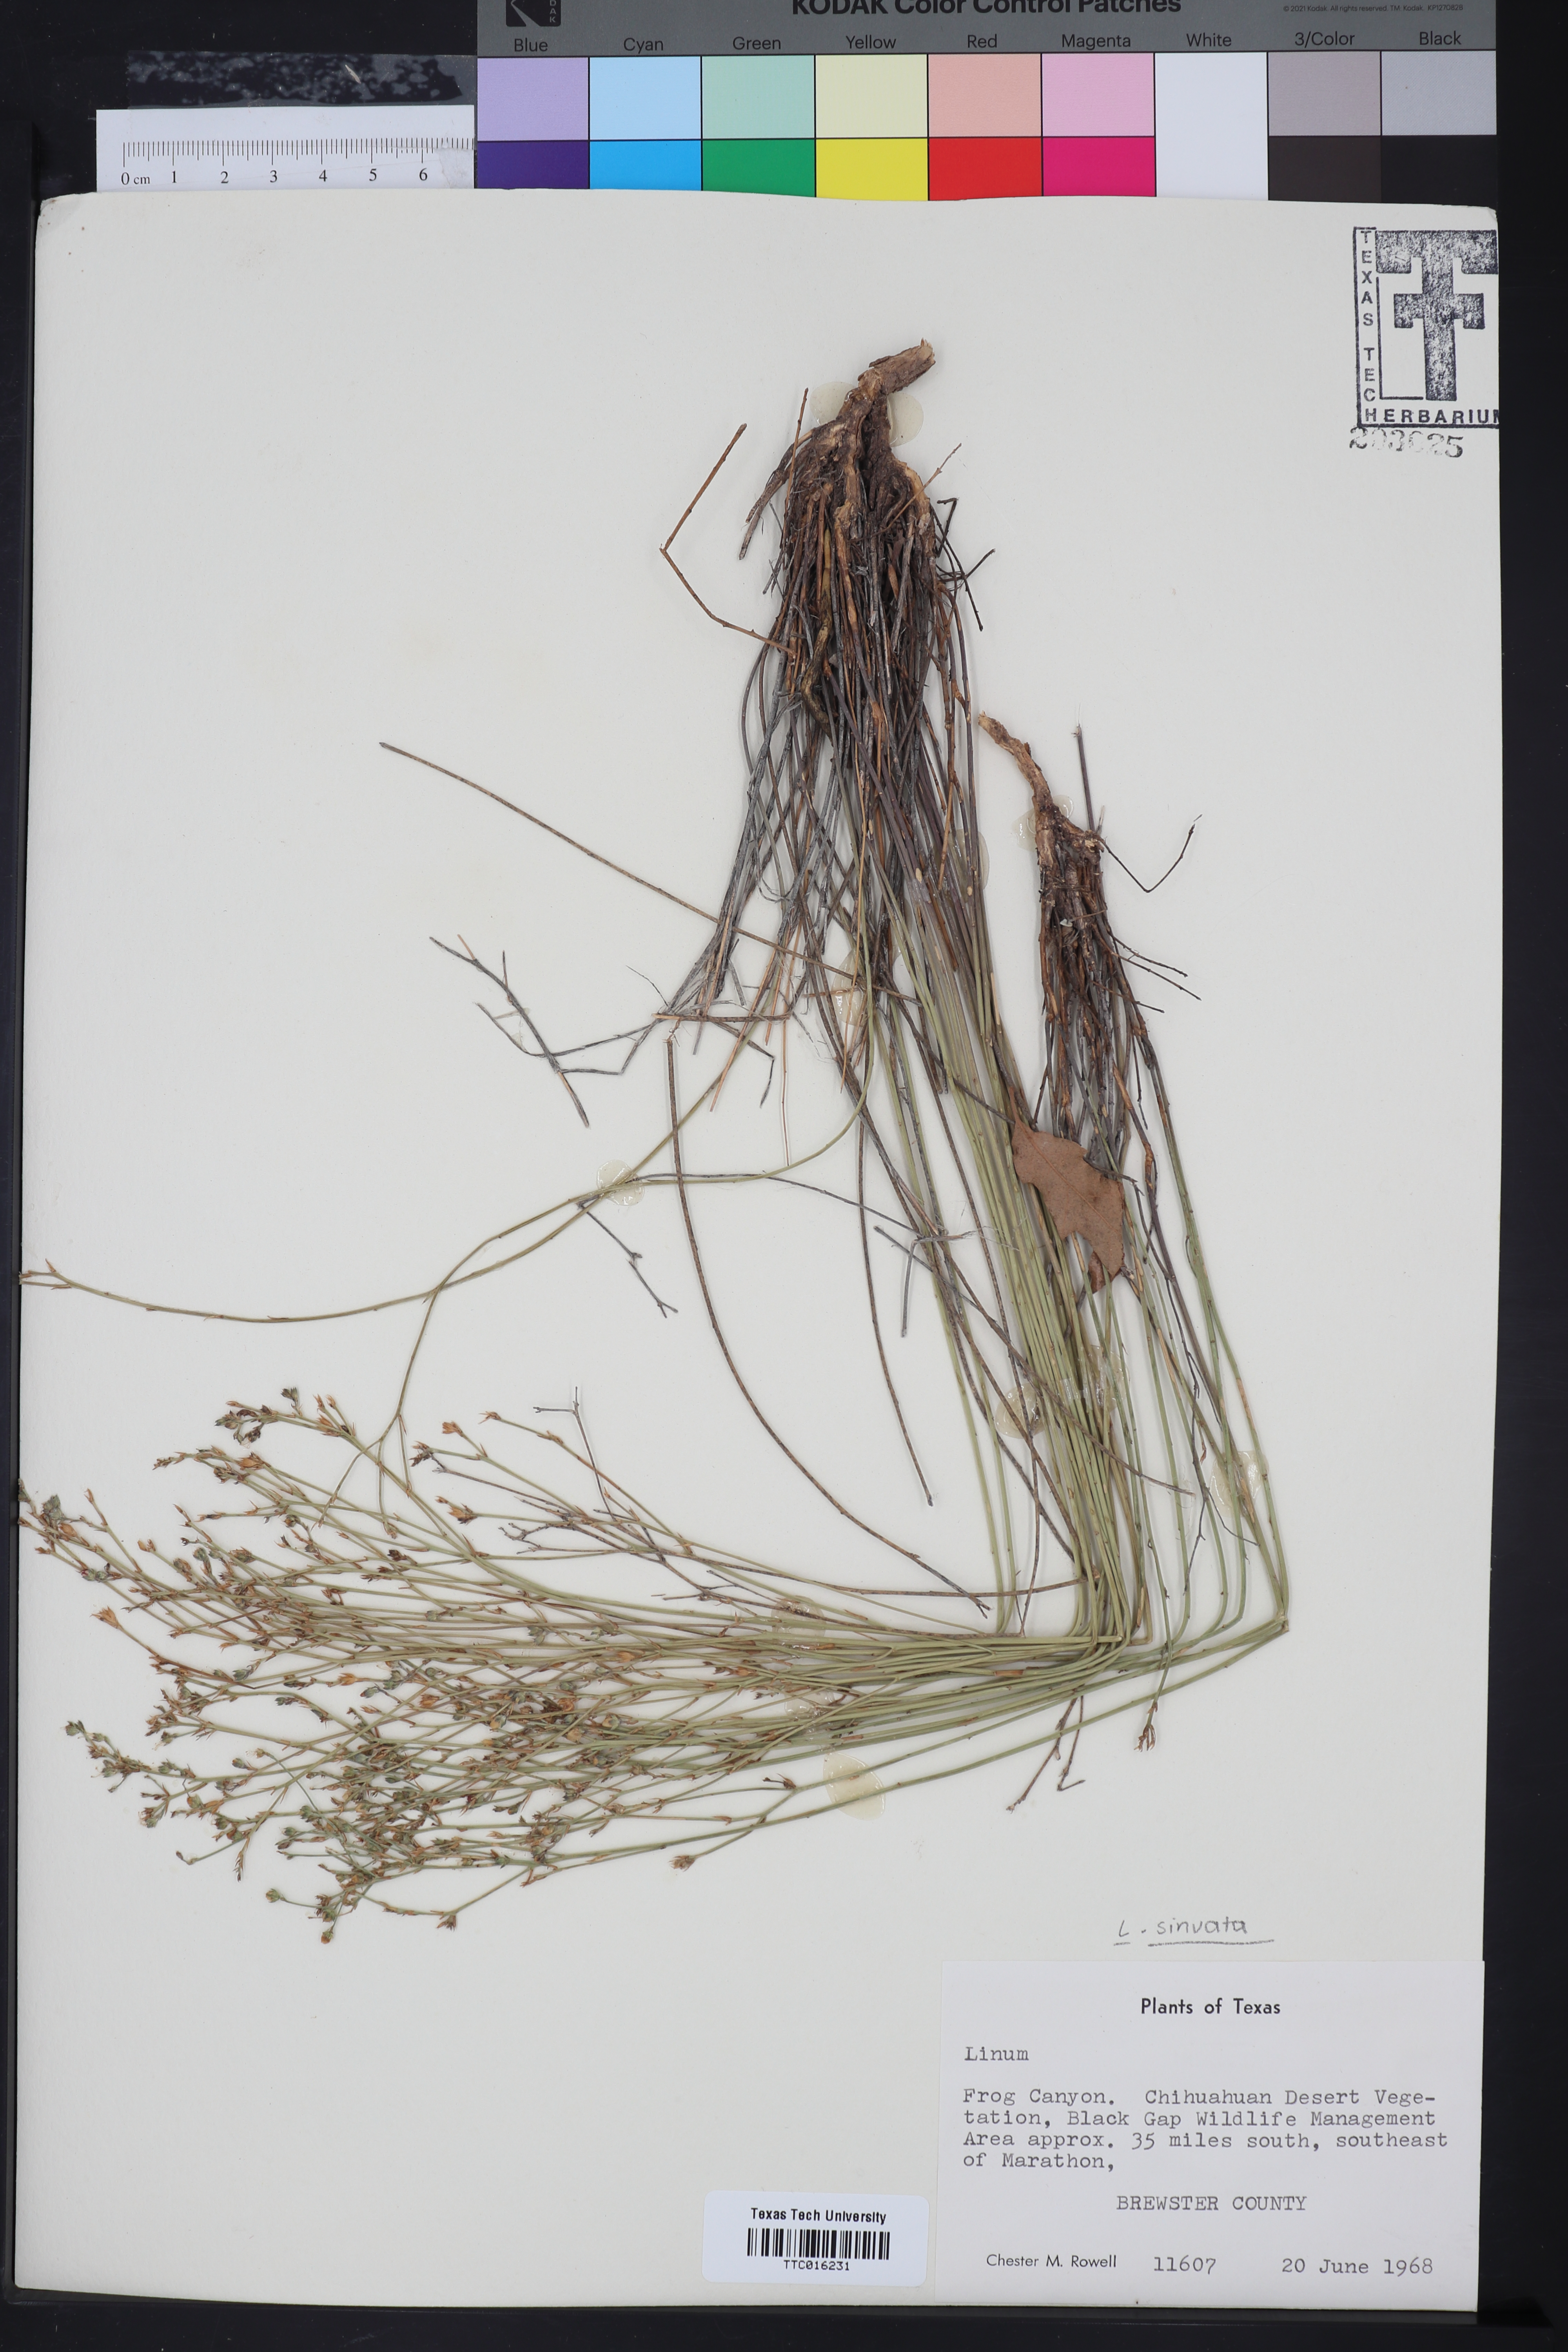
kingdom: Plantae
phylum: Tracheophyta
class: Magnoliopsida
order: Malpighiales
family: Linaceae
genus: Linum
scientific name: Linum
